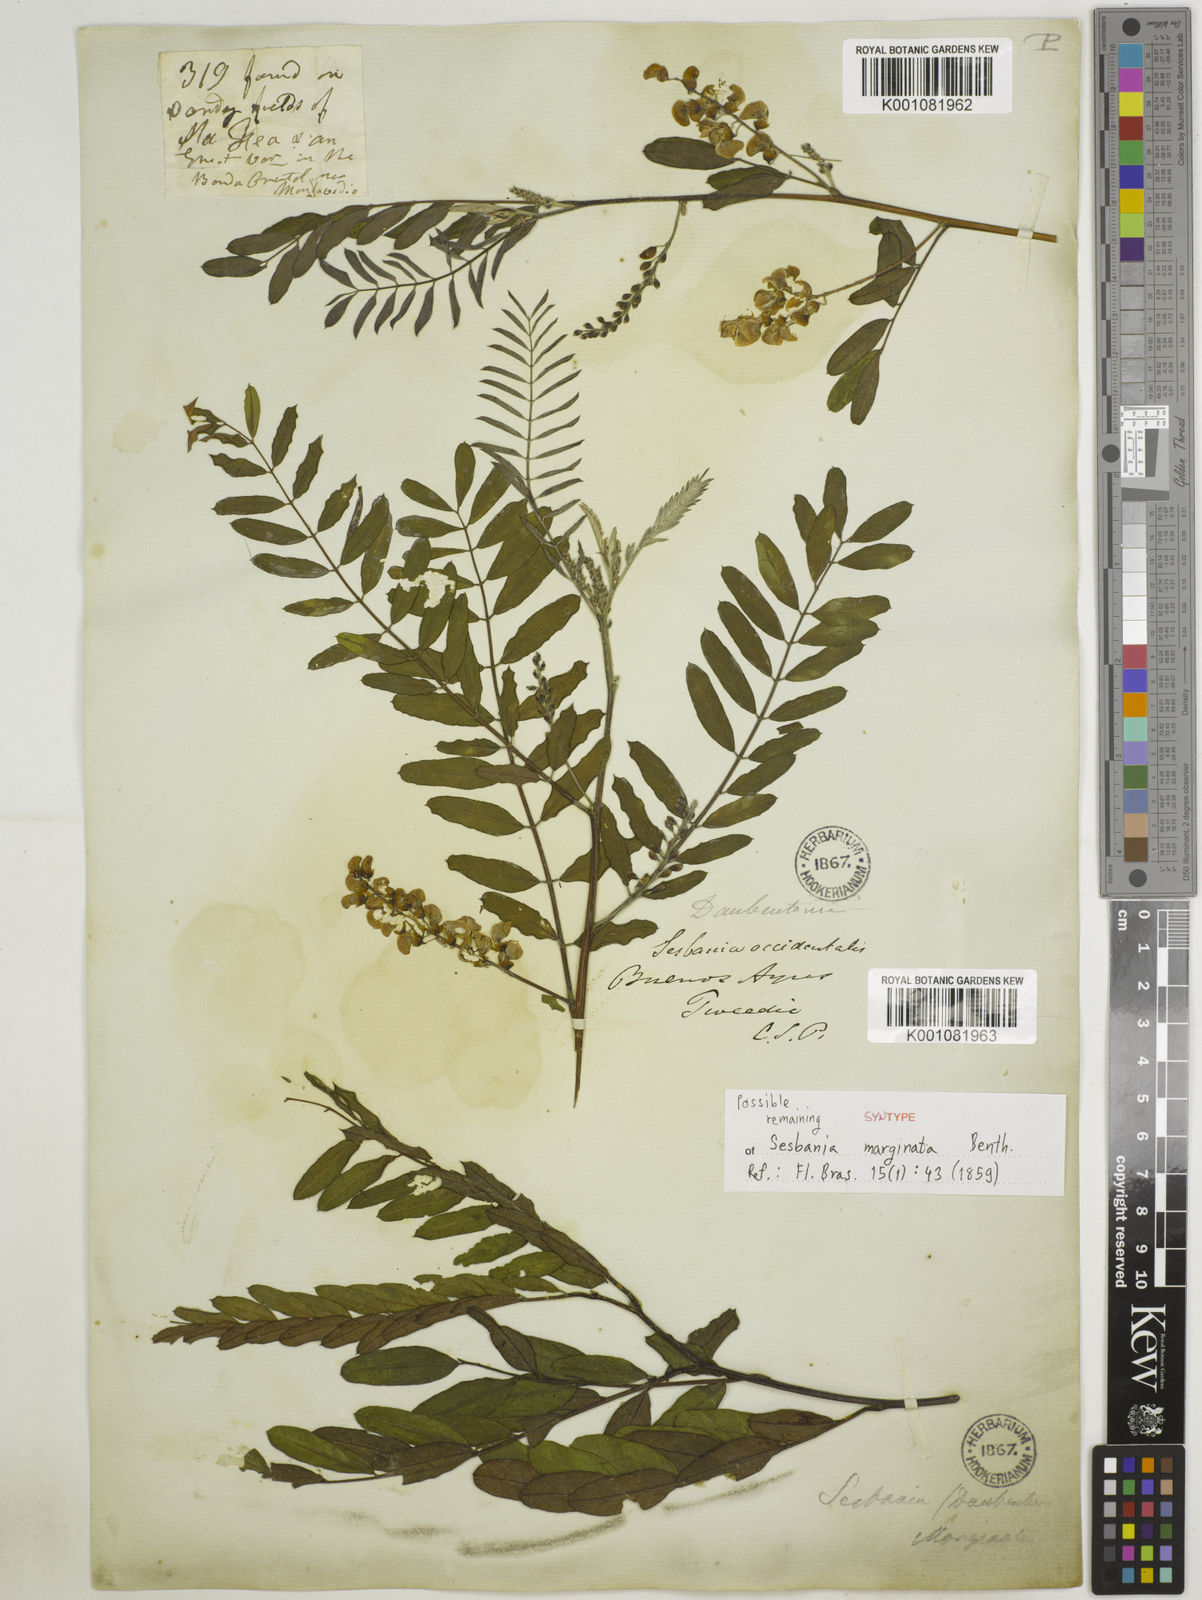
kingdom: Plantae
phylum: Tracheophyta
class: Magnoliopsida
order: Fabales
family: Fabaceae
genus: Sesbania
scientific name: Sesbania
